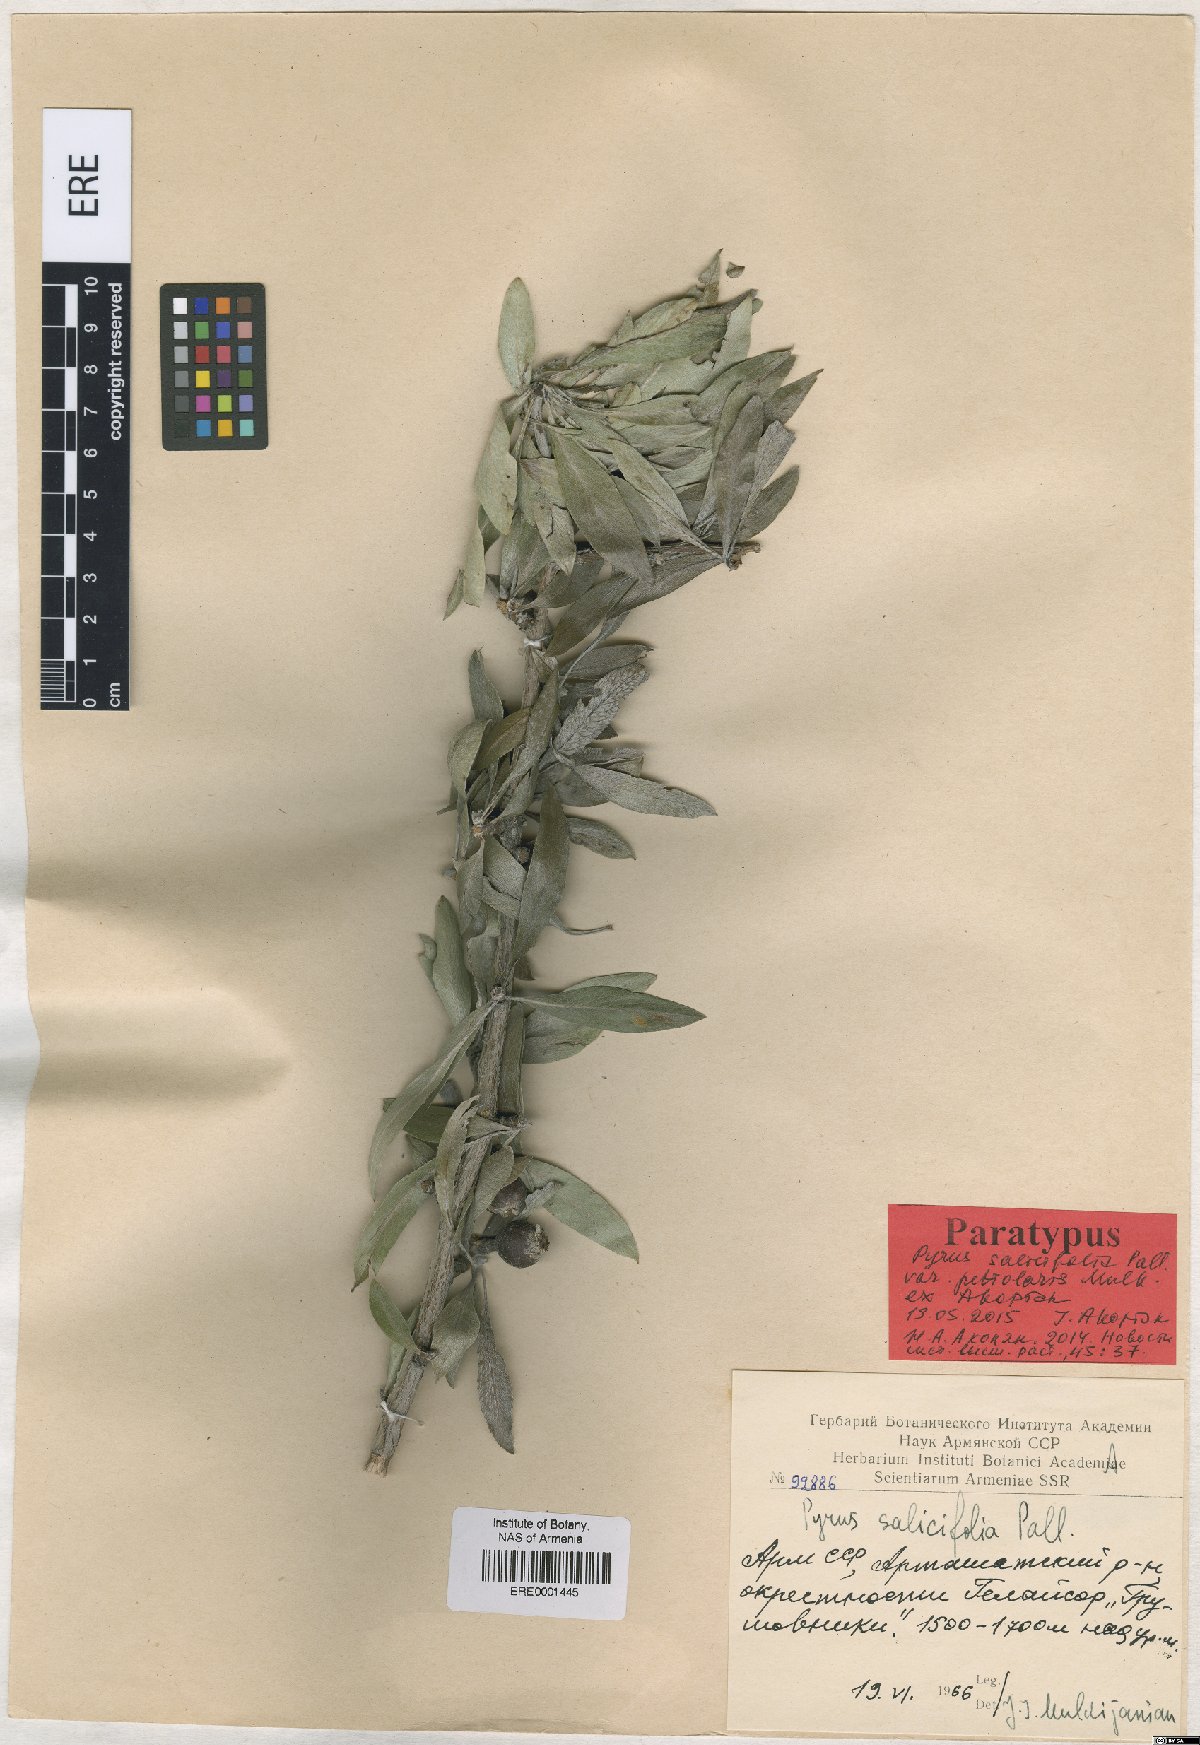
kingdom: Plantae
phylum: Tracheophyta
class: Magnoliopsida
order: Rosales
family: Rosaceae
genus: Pyrus
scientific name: Pyrus salicifolia
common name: Willow-leaved pear
